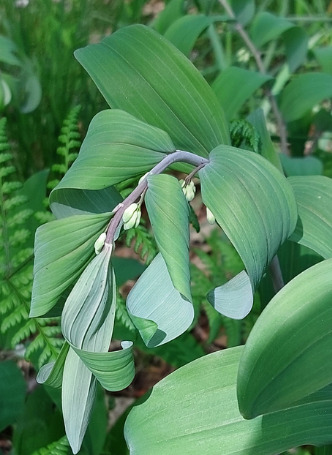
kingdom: Plantae
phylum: Tracheophyta
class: Liliopsida
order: Asparagales
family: Asparagaceae
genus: Polygonatum
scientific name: Polygonatum multiflorum
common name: Stor konval
